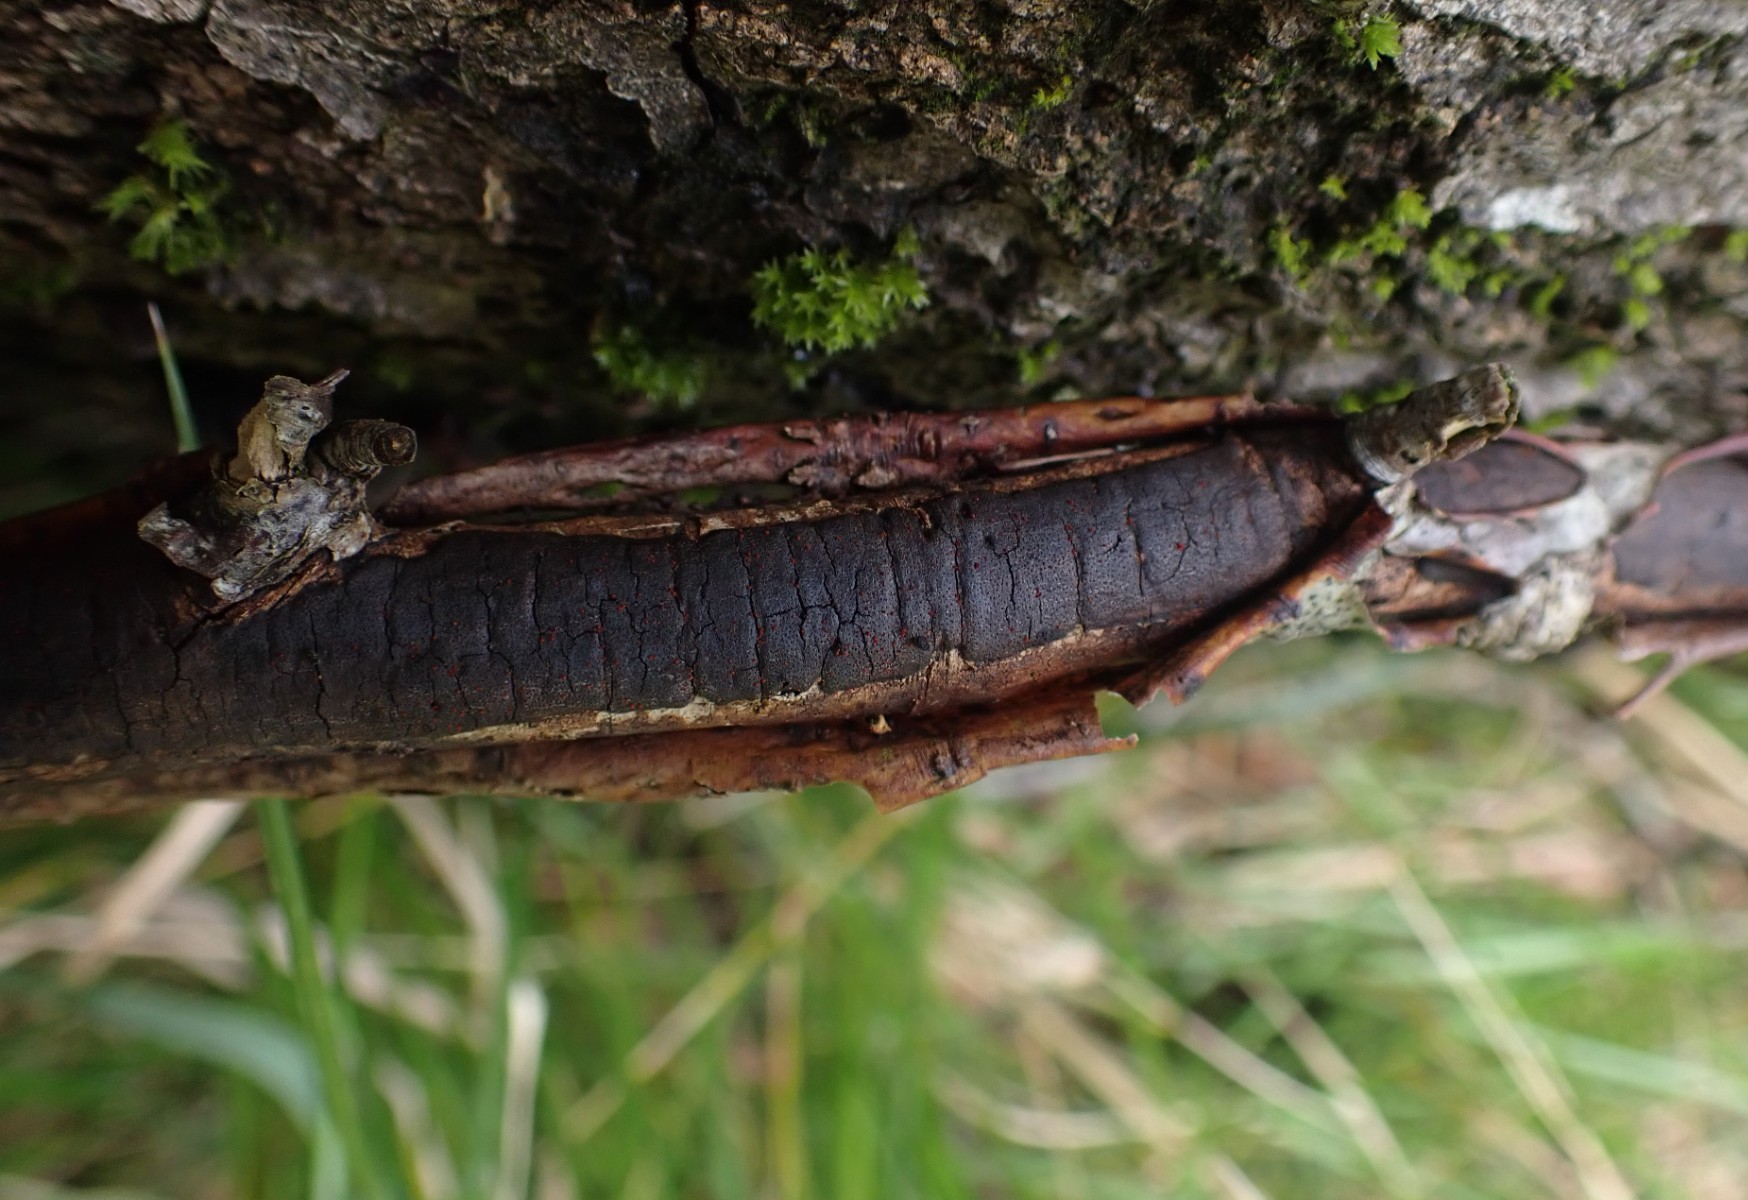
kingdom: Fungi
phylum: Ascomycota
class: Sordariomycetes
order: Xylariales
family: Diatrypaceae
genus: Diatrype
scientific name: Diatrype decorticata
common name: barksprænger-kulskorpe
